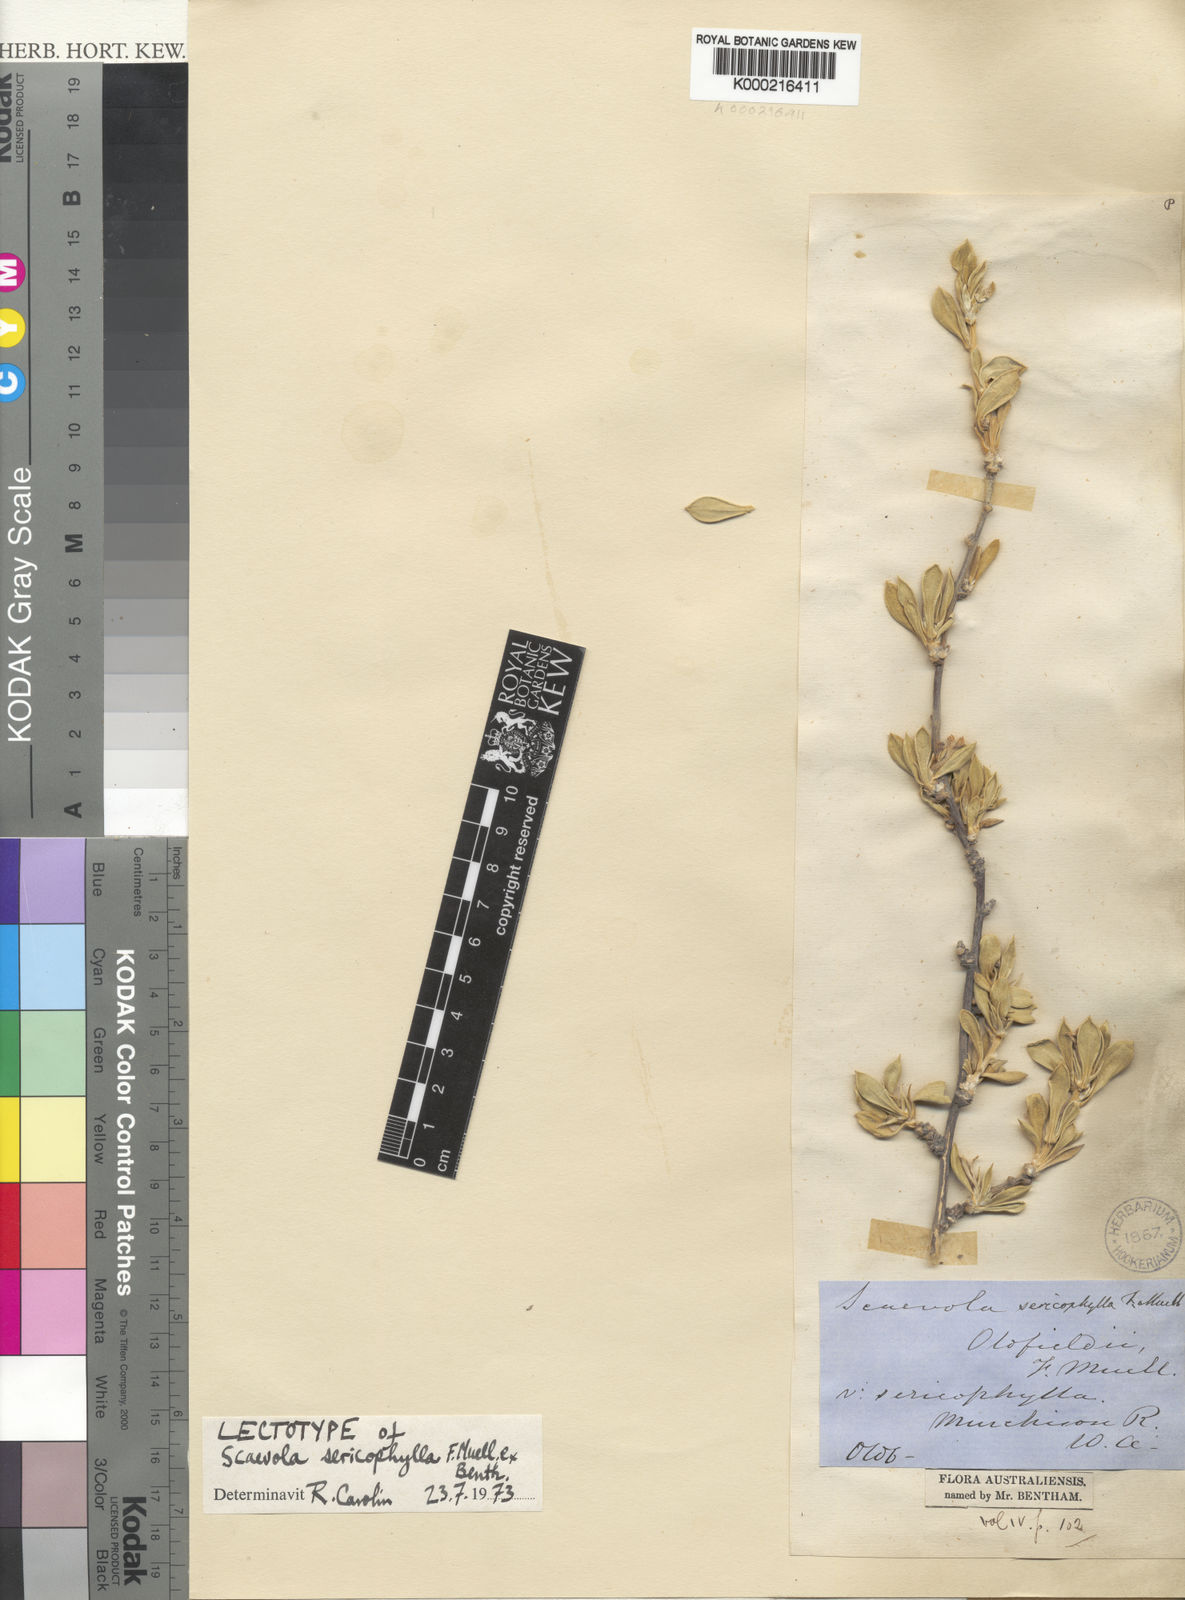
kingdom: Plantae
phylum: Tracheophyta
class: Magnoliopsida
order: Asterales
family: Goodeniaceae
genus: Scaevola
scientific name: Scaevola sericophylla
